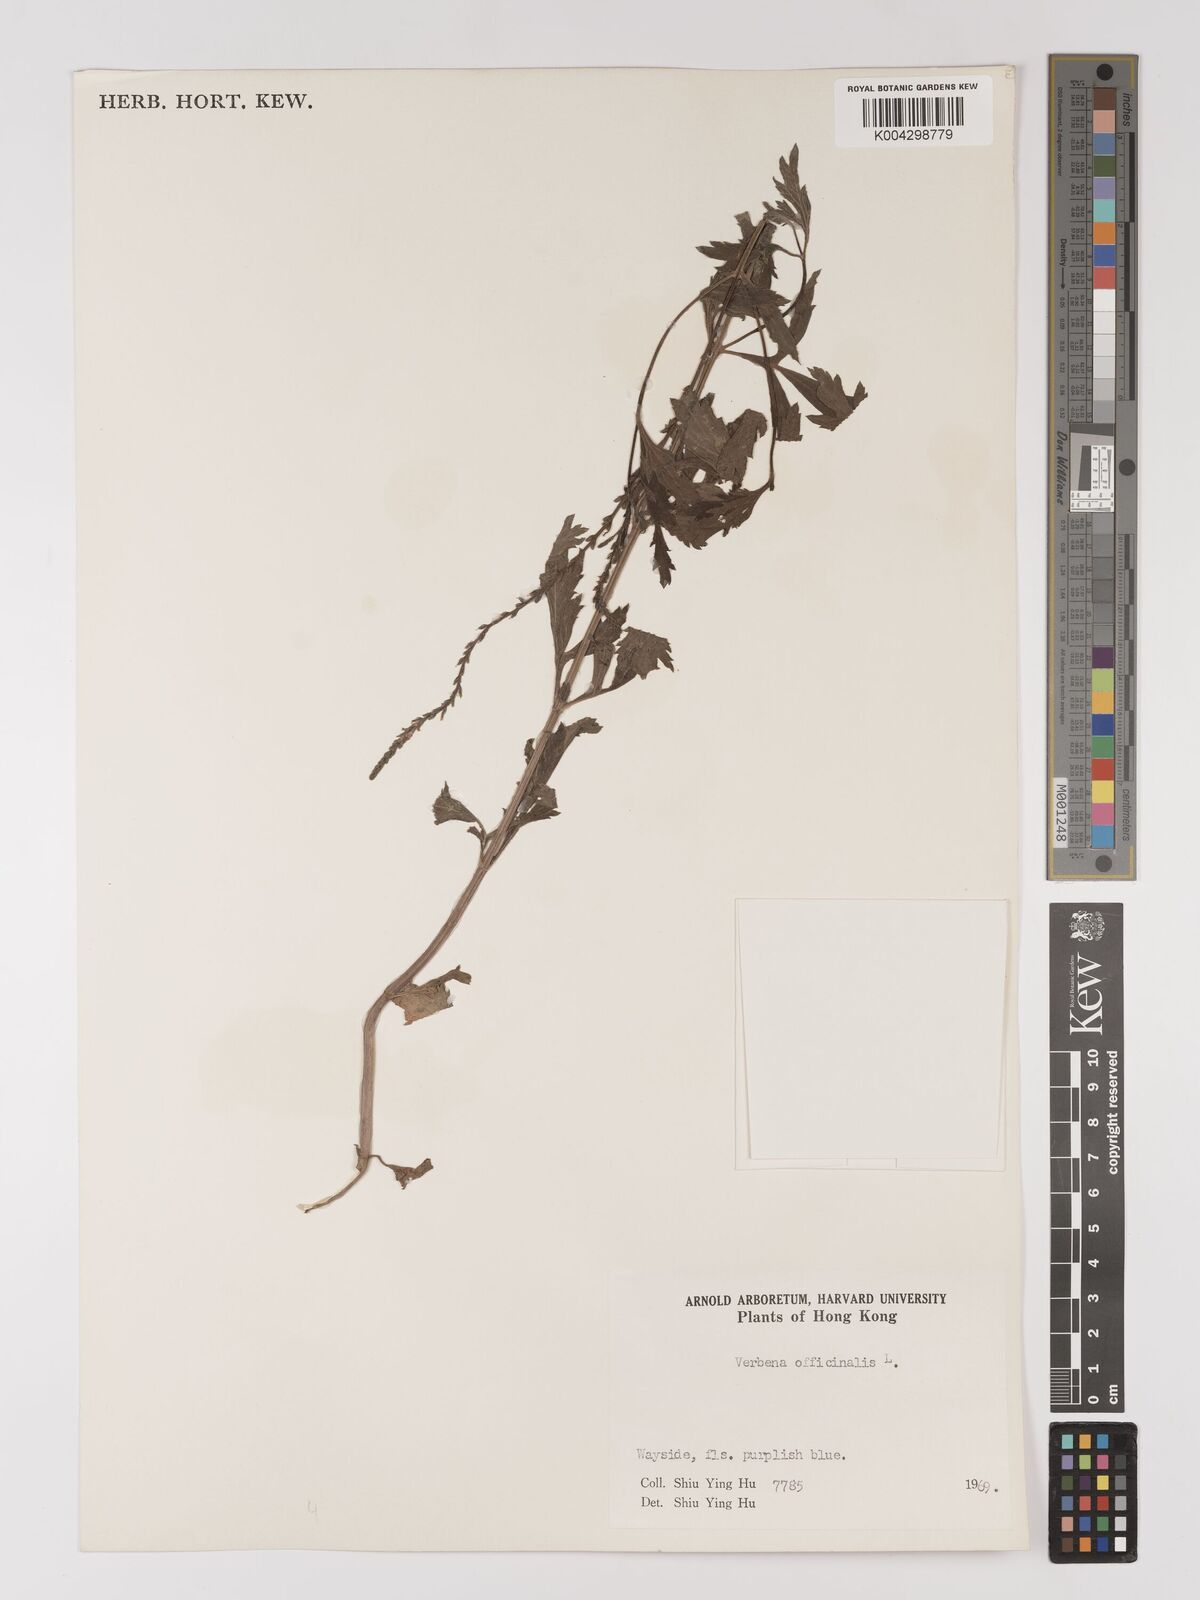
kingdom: Plantae
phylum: Tracheophyta
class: Magnoliopsida
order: Lamiales
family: Verbenaceae
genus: Verbena
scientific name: Verbena officinalis
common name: Vervain
